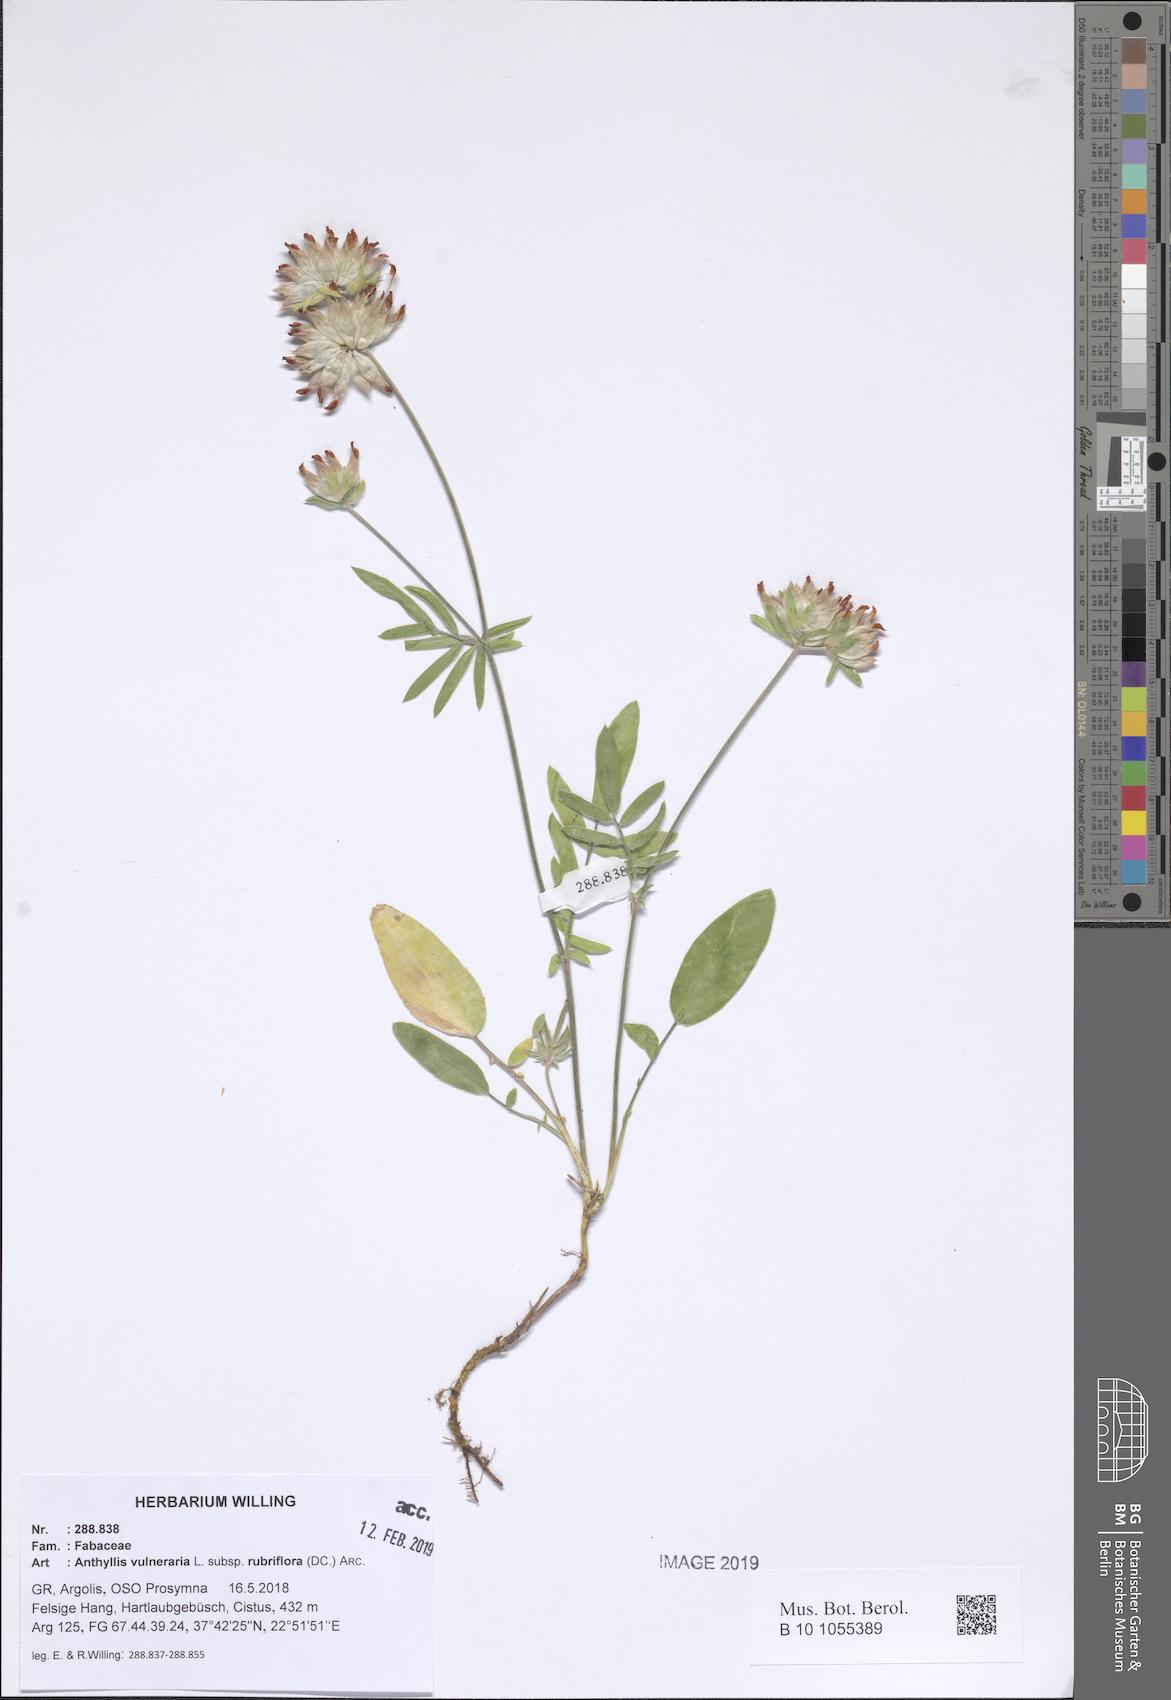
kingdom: Plantae
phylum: Tracheophyta
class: Magnoliopsida
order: Fabales
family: Fabaceae
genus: Anthyllis
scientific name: Anthyllis vulneraria
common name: Kidney vetch
